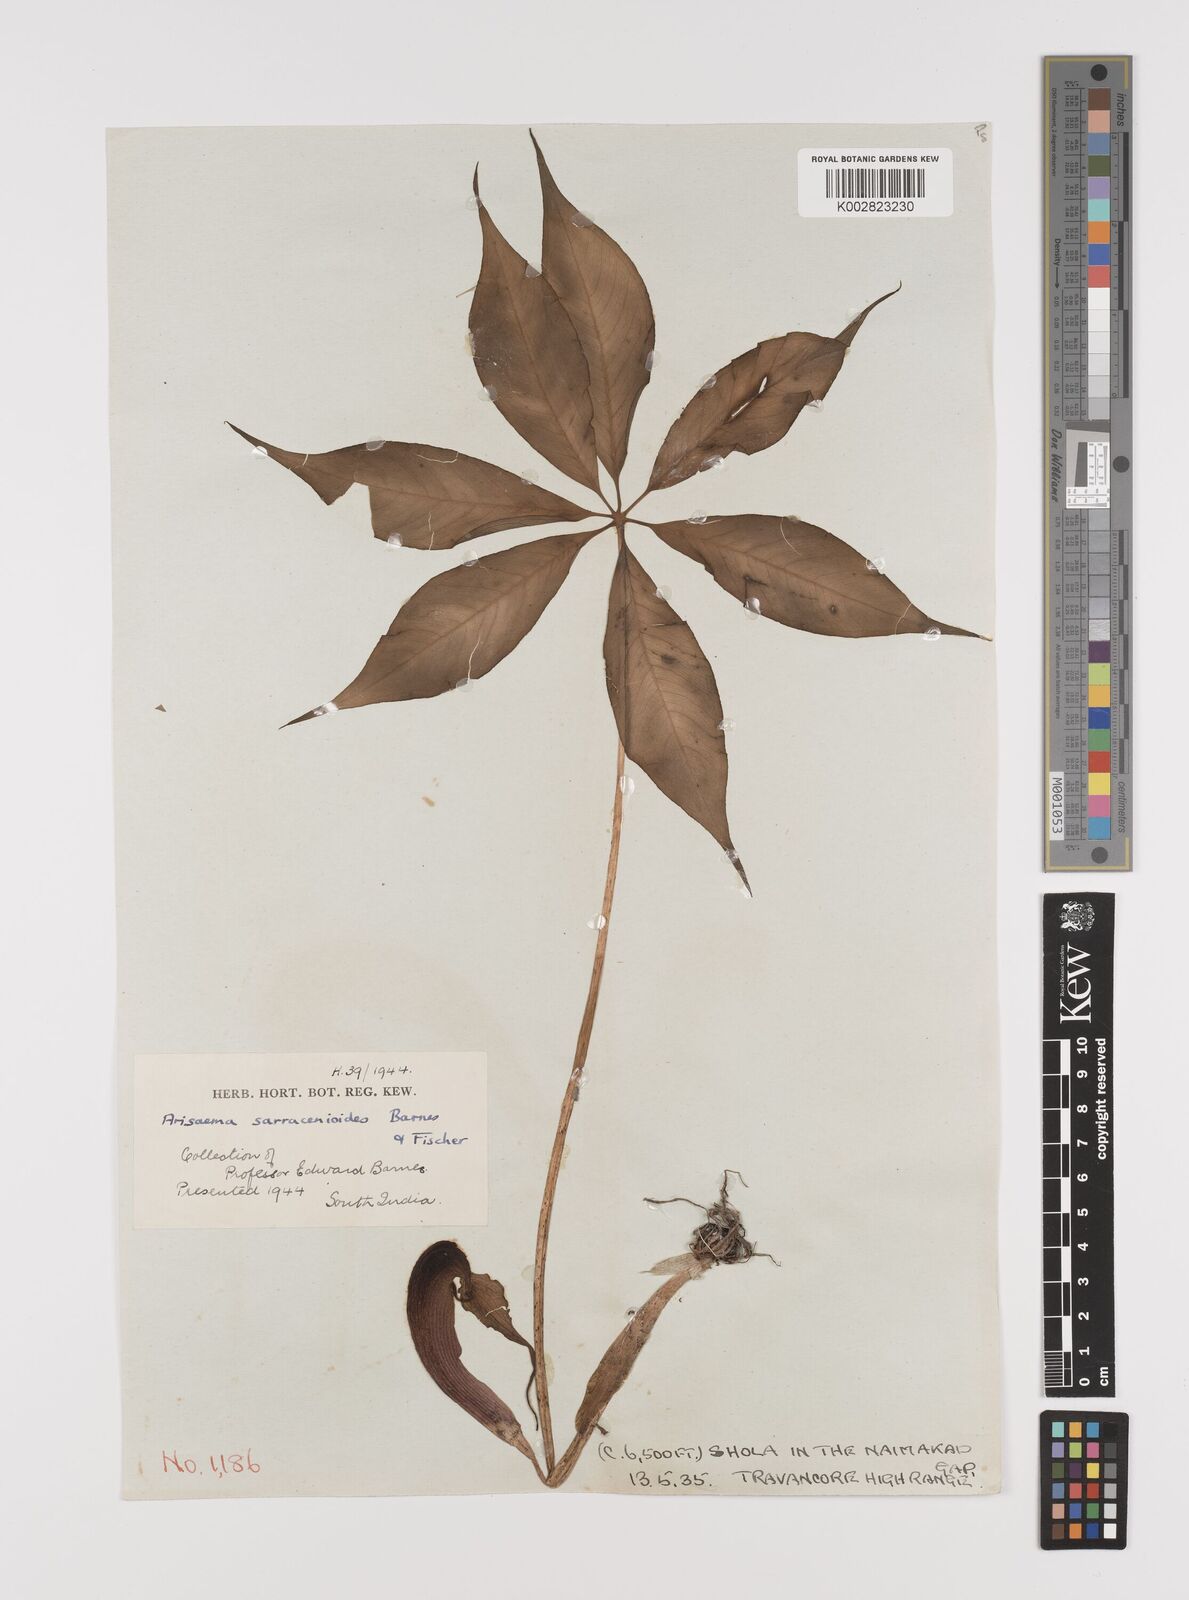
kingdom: Plantae
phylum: Tracheophyta
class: Liliopsida
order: Alismatales
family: Araceae
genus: Arisaema
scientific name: Arisaema sarracenioides
